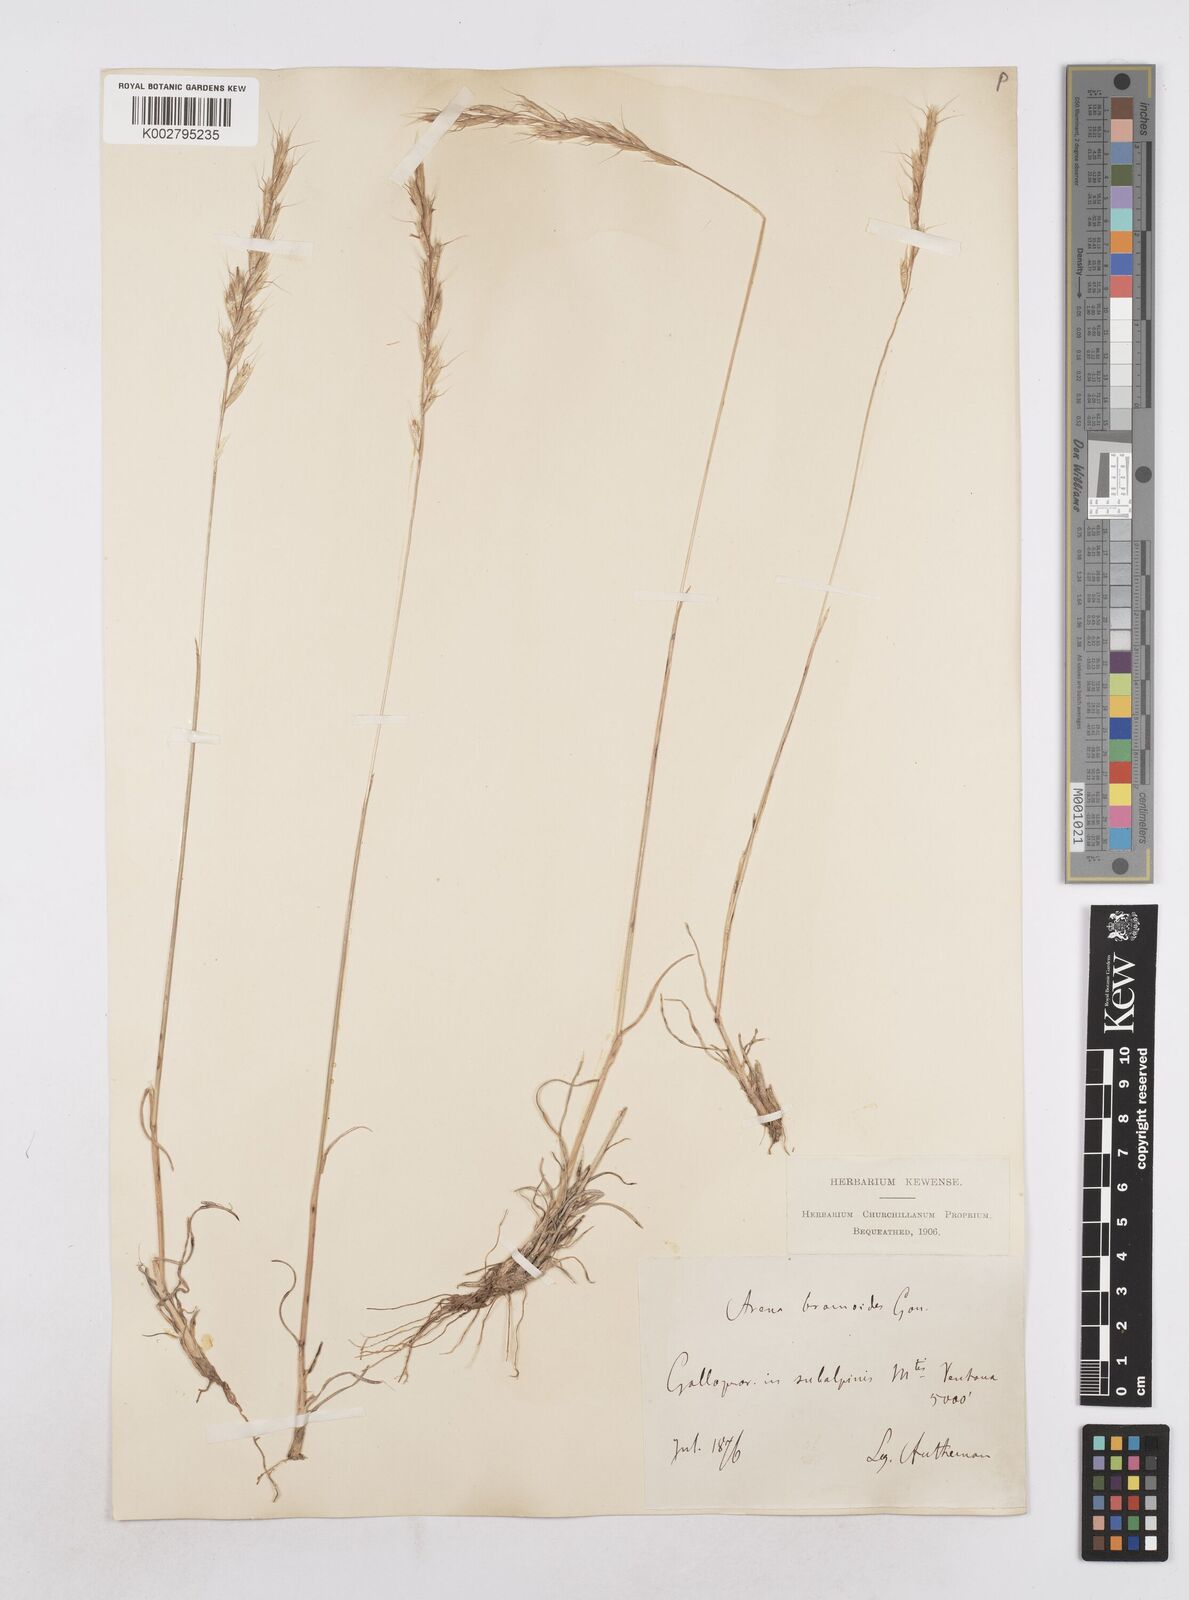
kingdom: Plantae
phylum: Tracheophyta
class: Liliopsida
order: Poales
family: Poaceae
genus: Helictochloa
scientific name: Helictochloa bromoides
